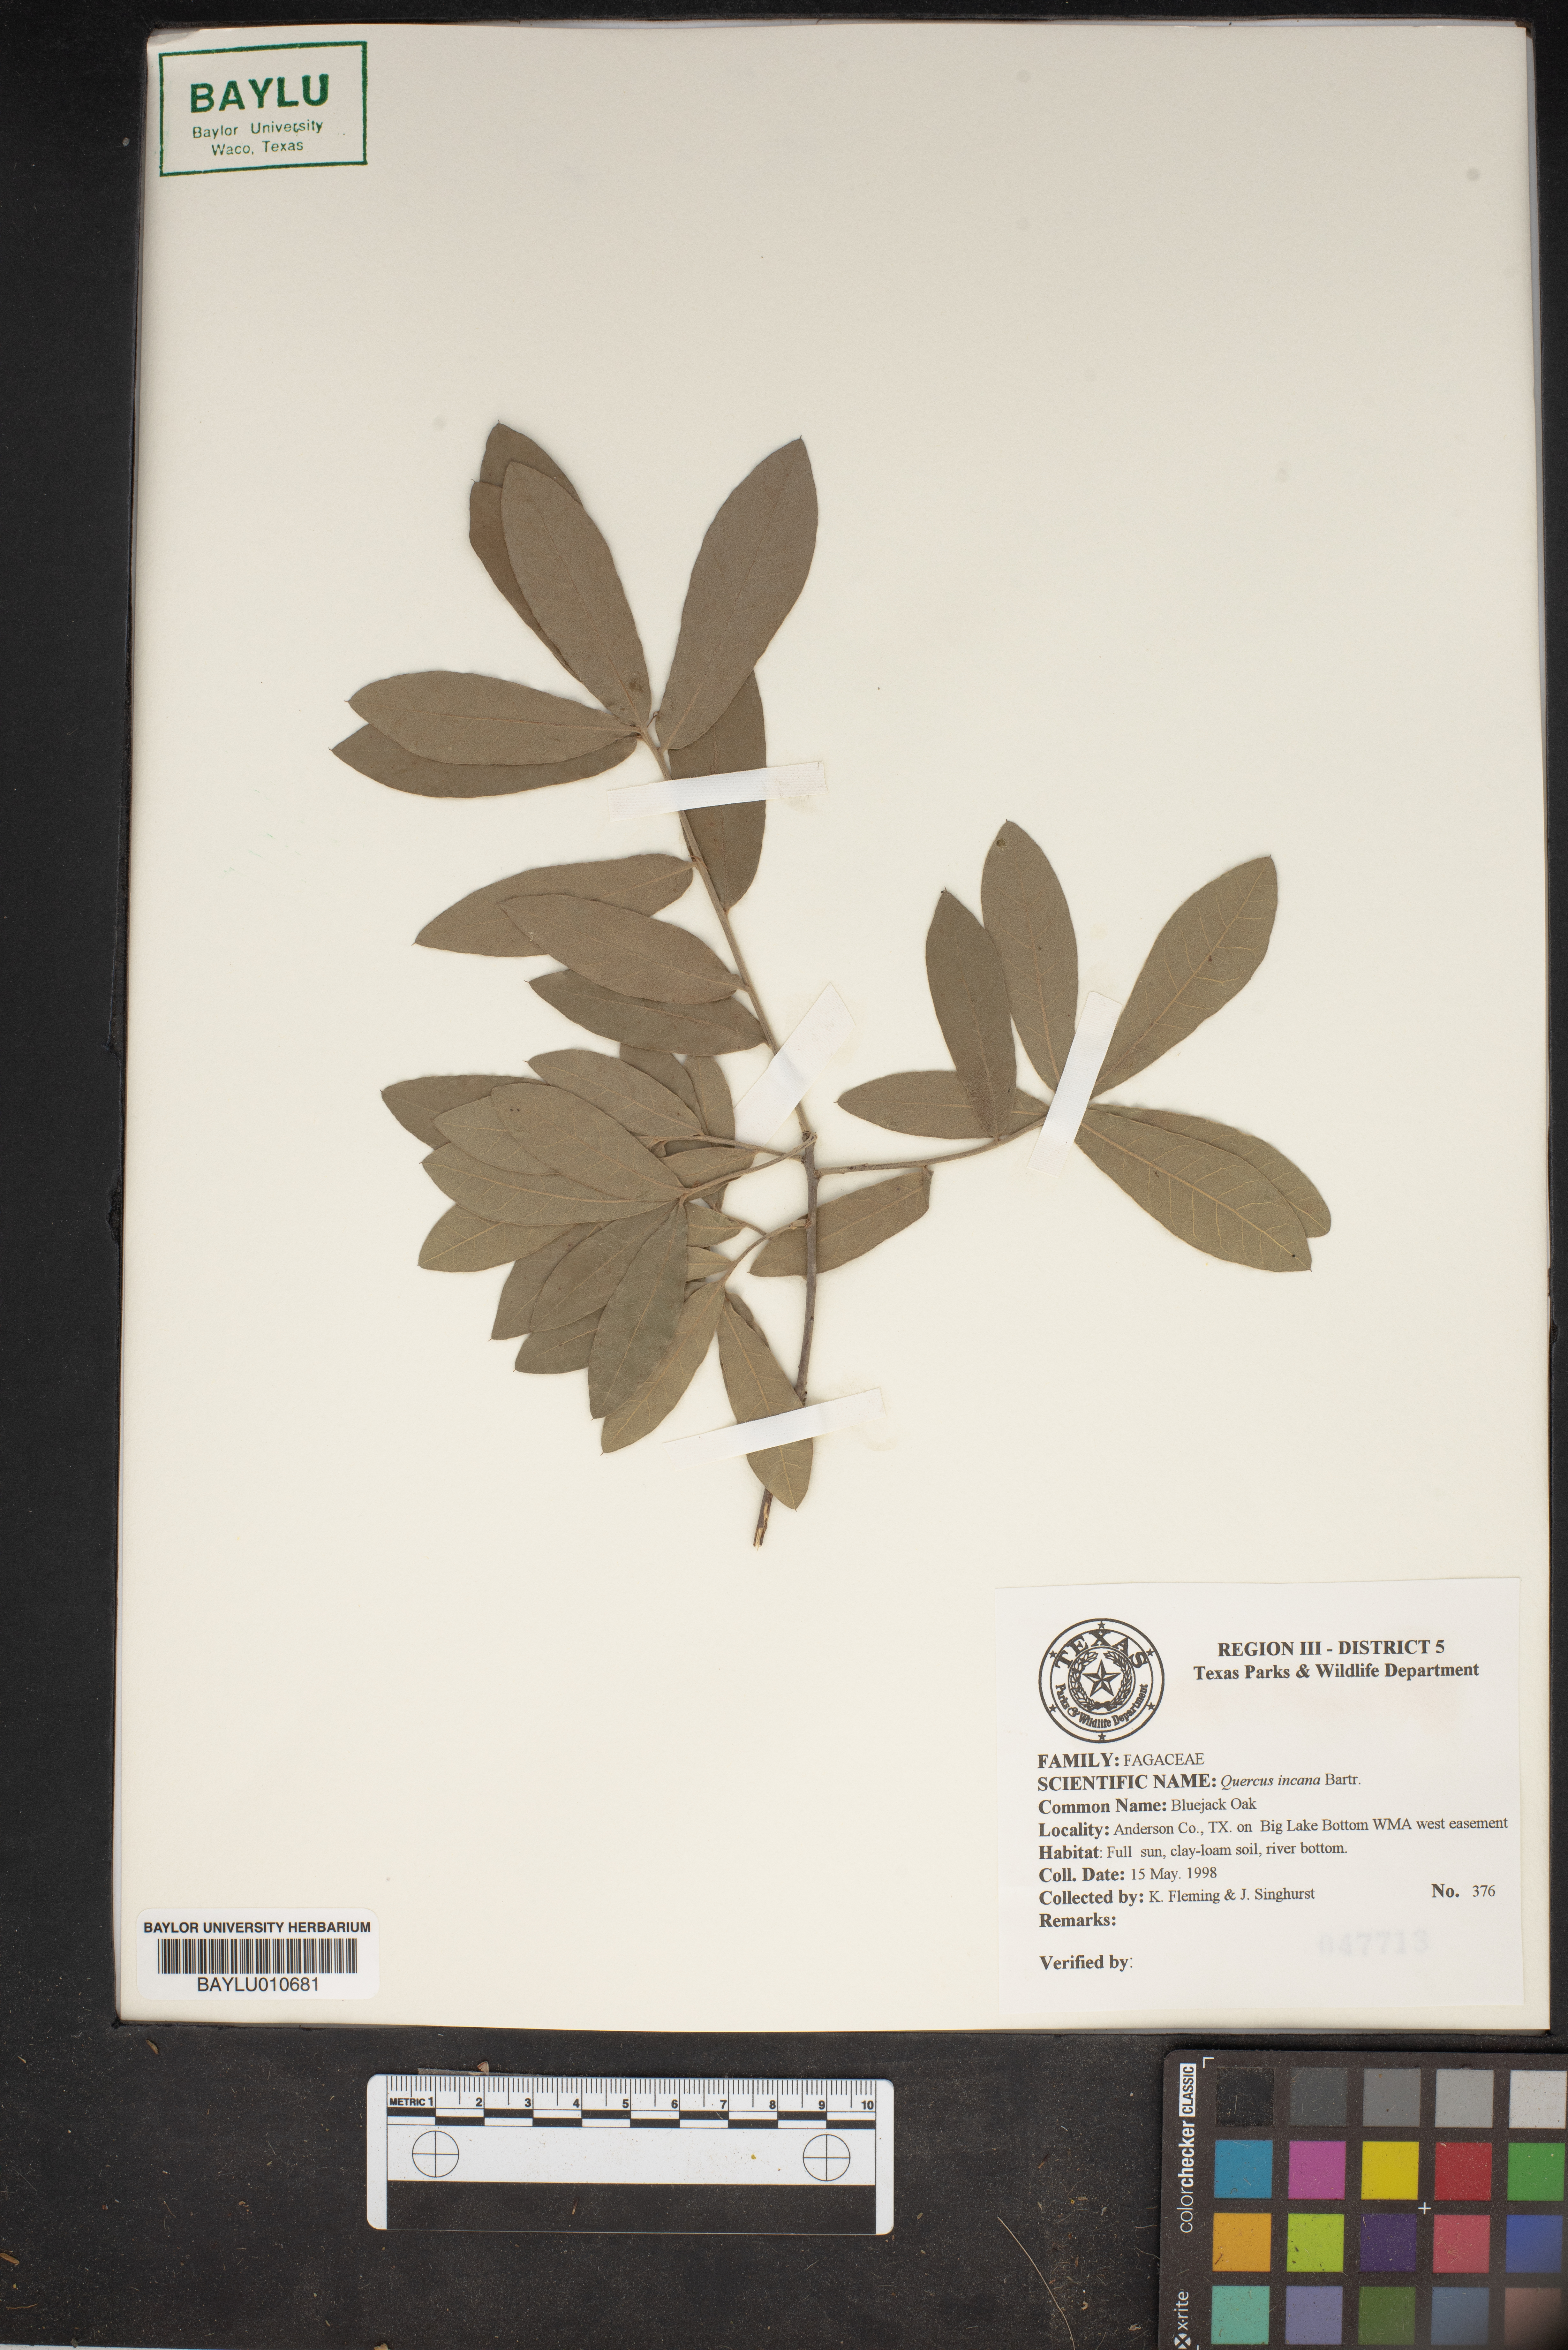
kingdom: Plantae
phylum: Tracheophyta
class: Magnoliopsida
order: Fagales
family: Fagaceae
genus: Quercus
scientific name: Quercus incana
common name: Bluejack oak
